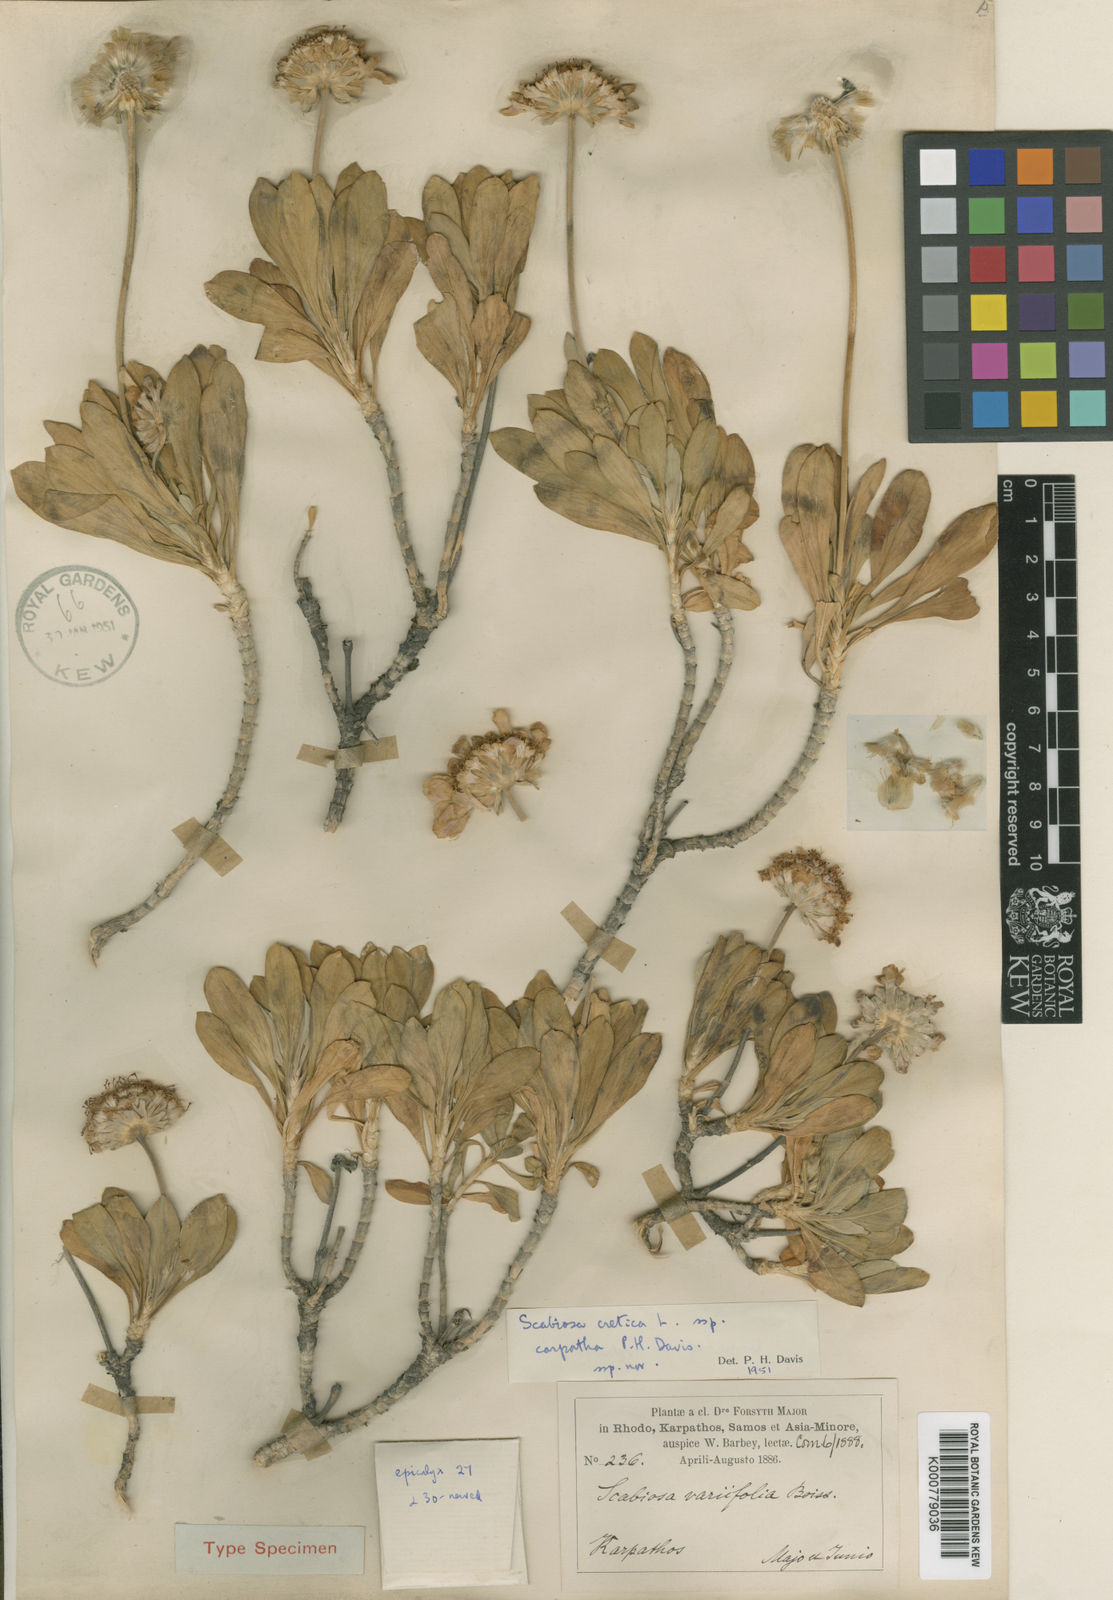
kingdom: Plantae
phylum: Tracheophyta
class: Magnoliopsida
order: Dipsacales
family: Caprifoliaceae
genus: Lomelosia
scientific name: Lomelosia cretica
